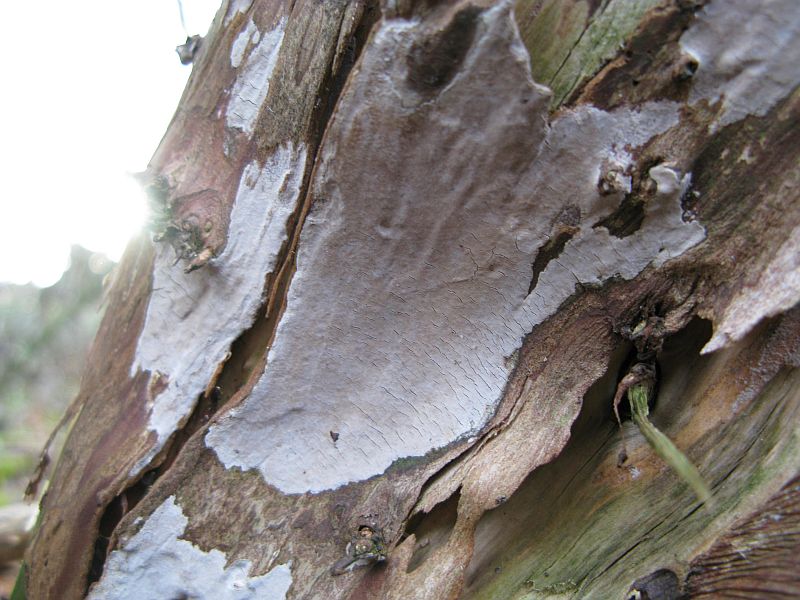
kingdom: Fungi
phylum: Basidiomycota
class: Agaricomycetes
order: Russulales
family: Echinodontiaceae
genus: Amylostereum
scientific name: Amylostereum laevigatum
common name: ene-lædersvamp
